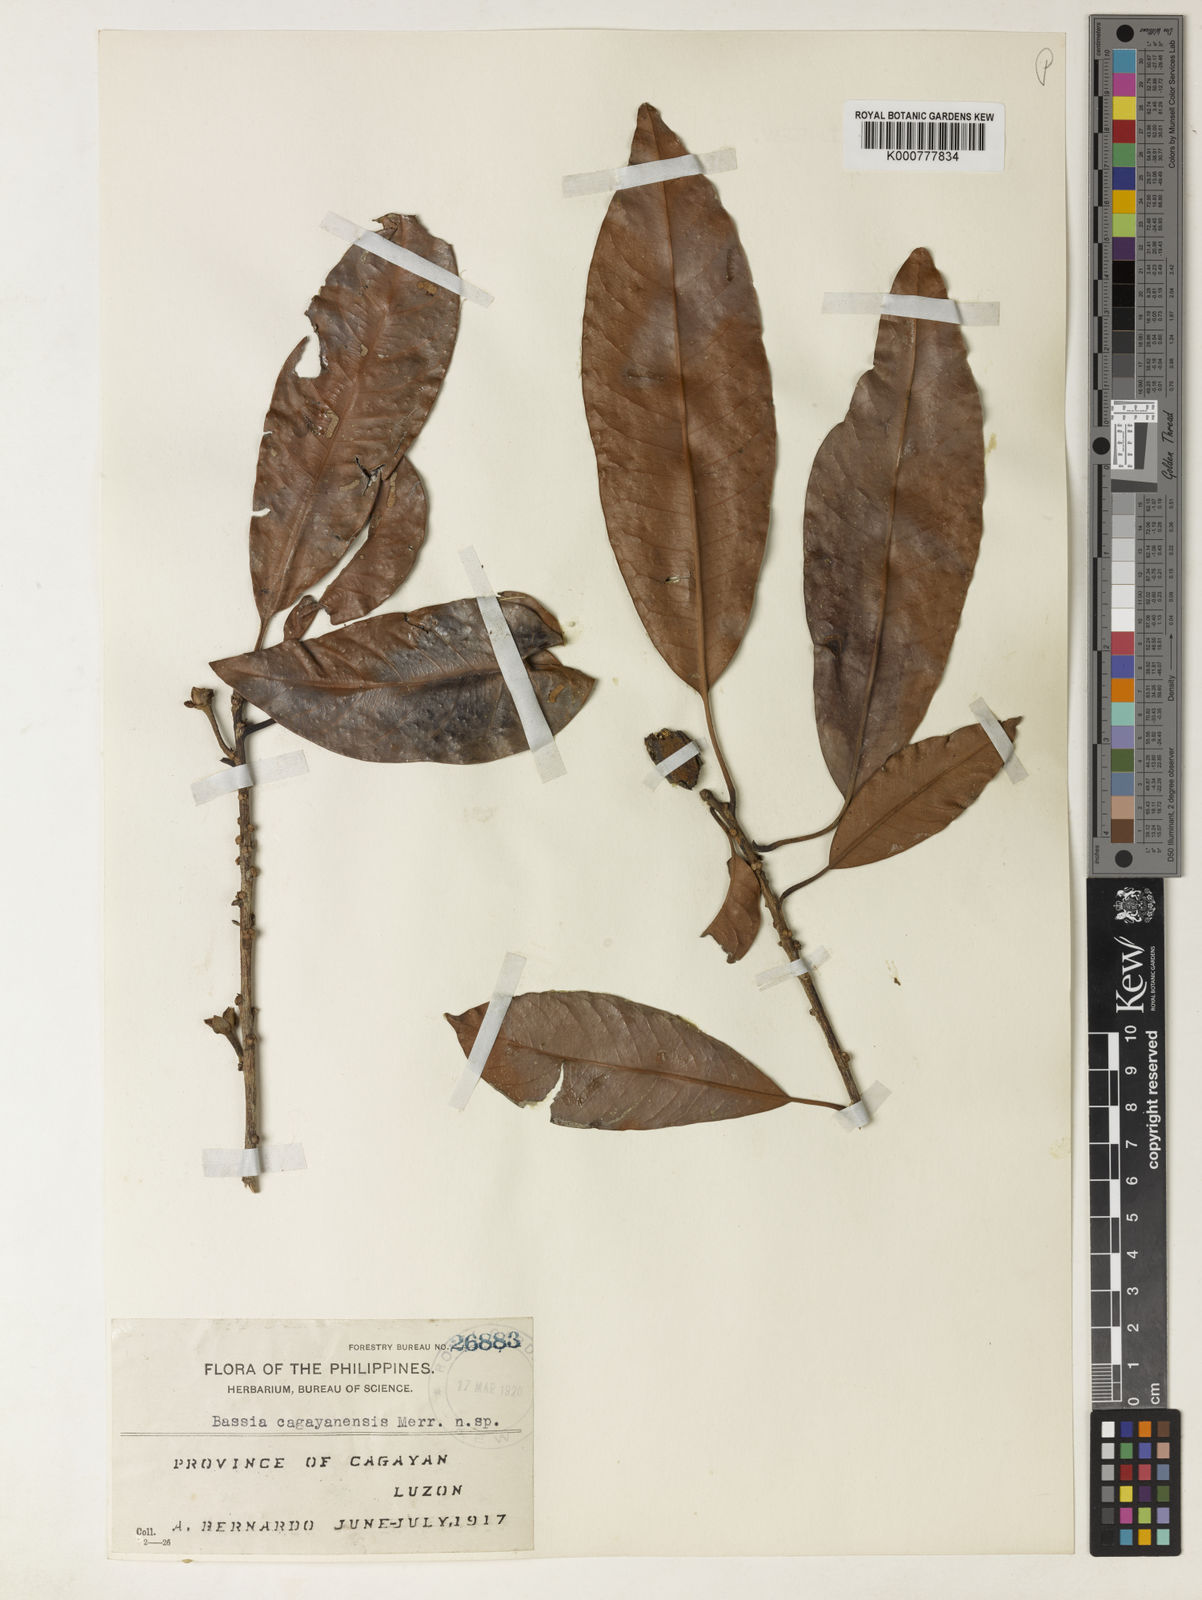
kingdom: Plantae
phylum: Tracheophyta
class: Magnoliopsida
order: Ericales
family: Sapotaceae
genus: Madhuca
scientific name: Madhuca burckiana
